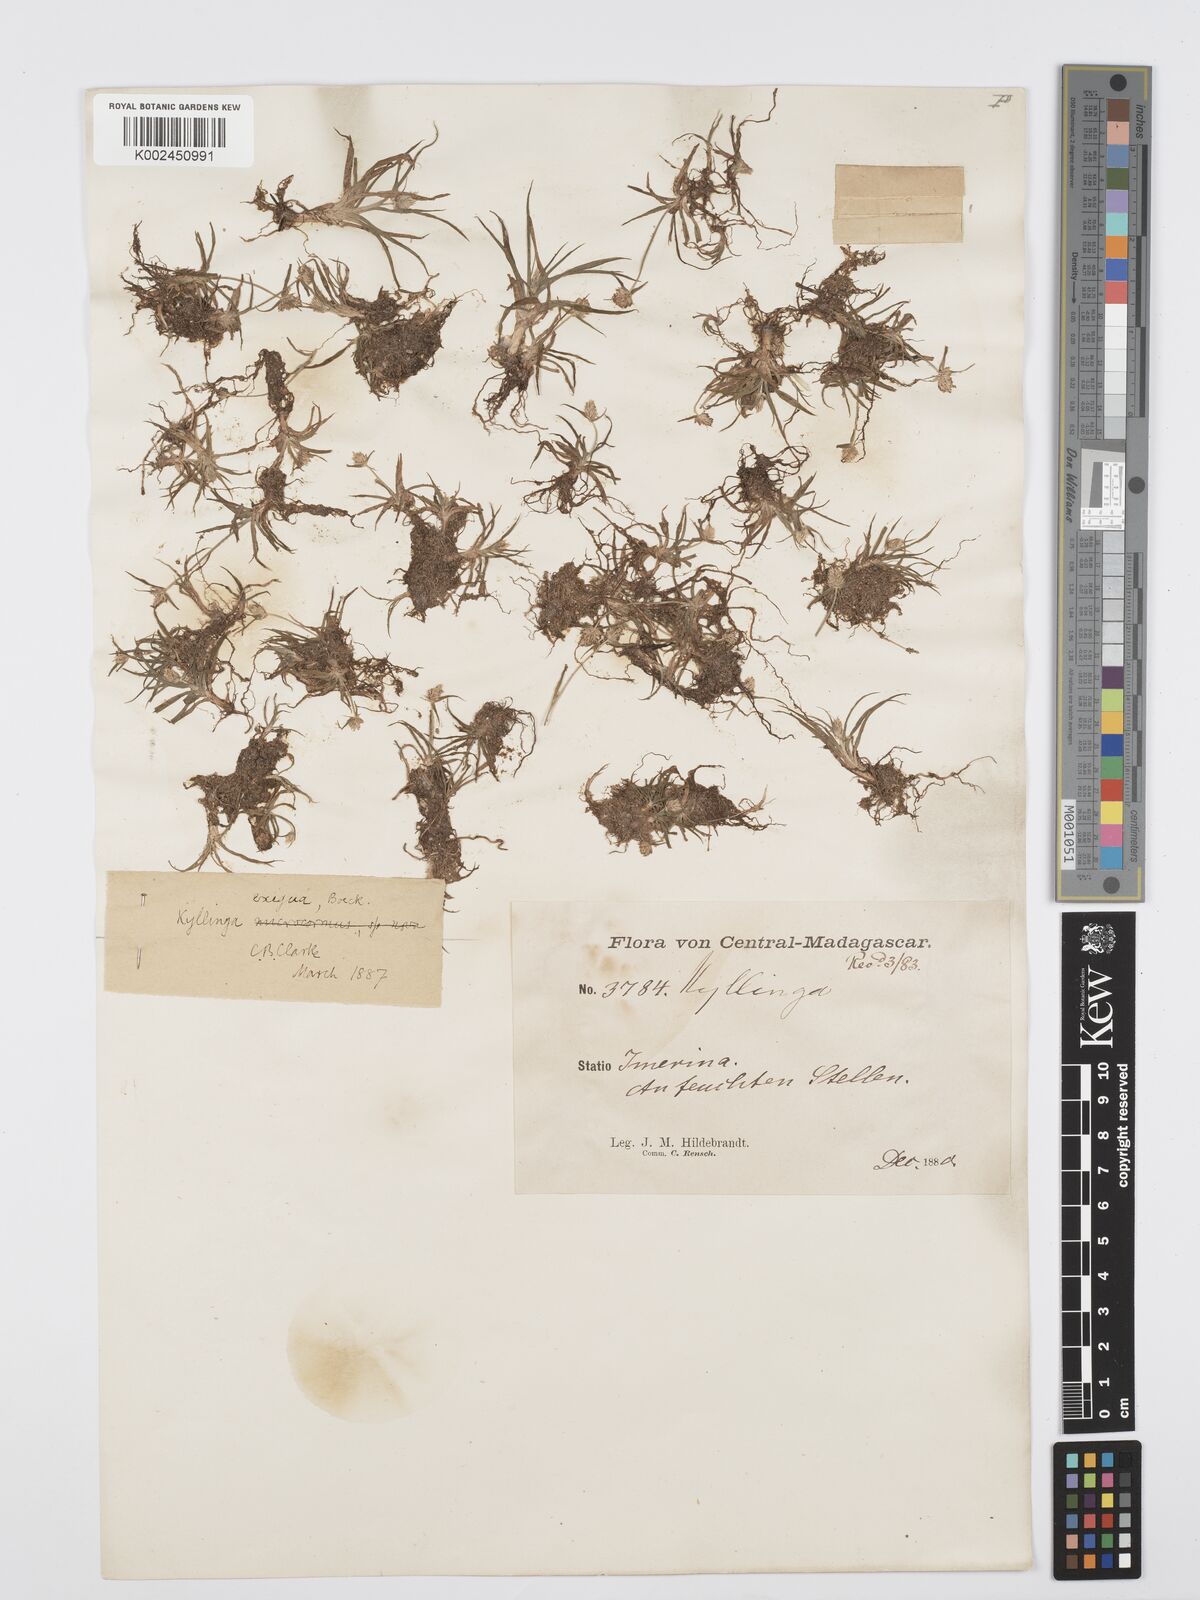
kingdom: Plantae
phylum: Tracheophyta
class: Liliopsida
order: Poales
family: Cyperaceae
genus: Cyperus
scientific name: Cyperus conglobatus
